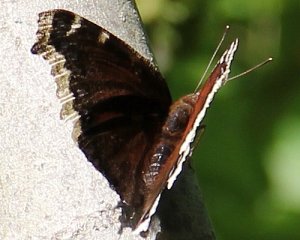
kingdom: Animalia
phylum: Arthropoda
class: Insecta
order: Lepidoptera
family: Nymphalidae
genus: Nymphalis
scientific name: Nymphalis antiopa
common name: Mourning Cloak
